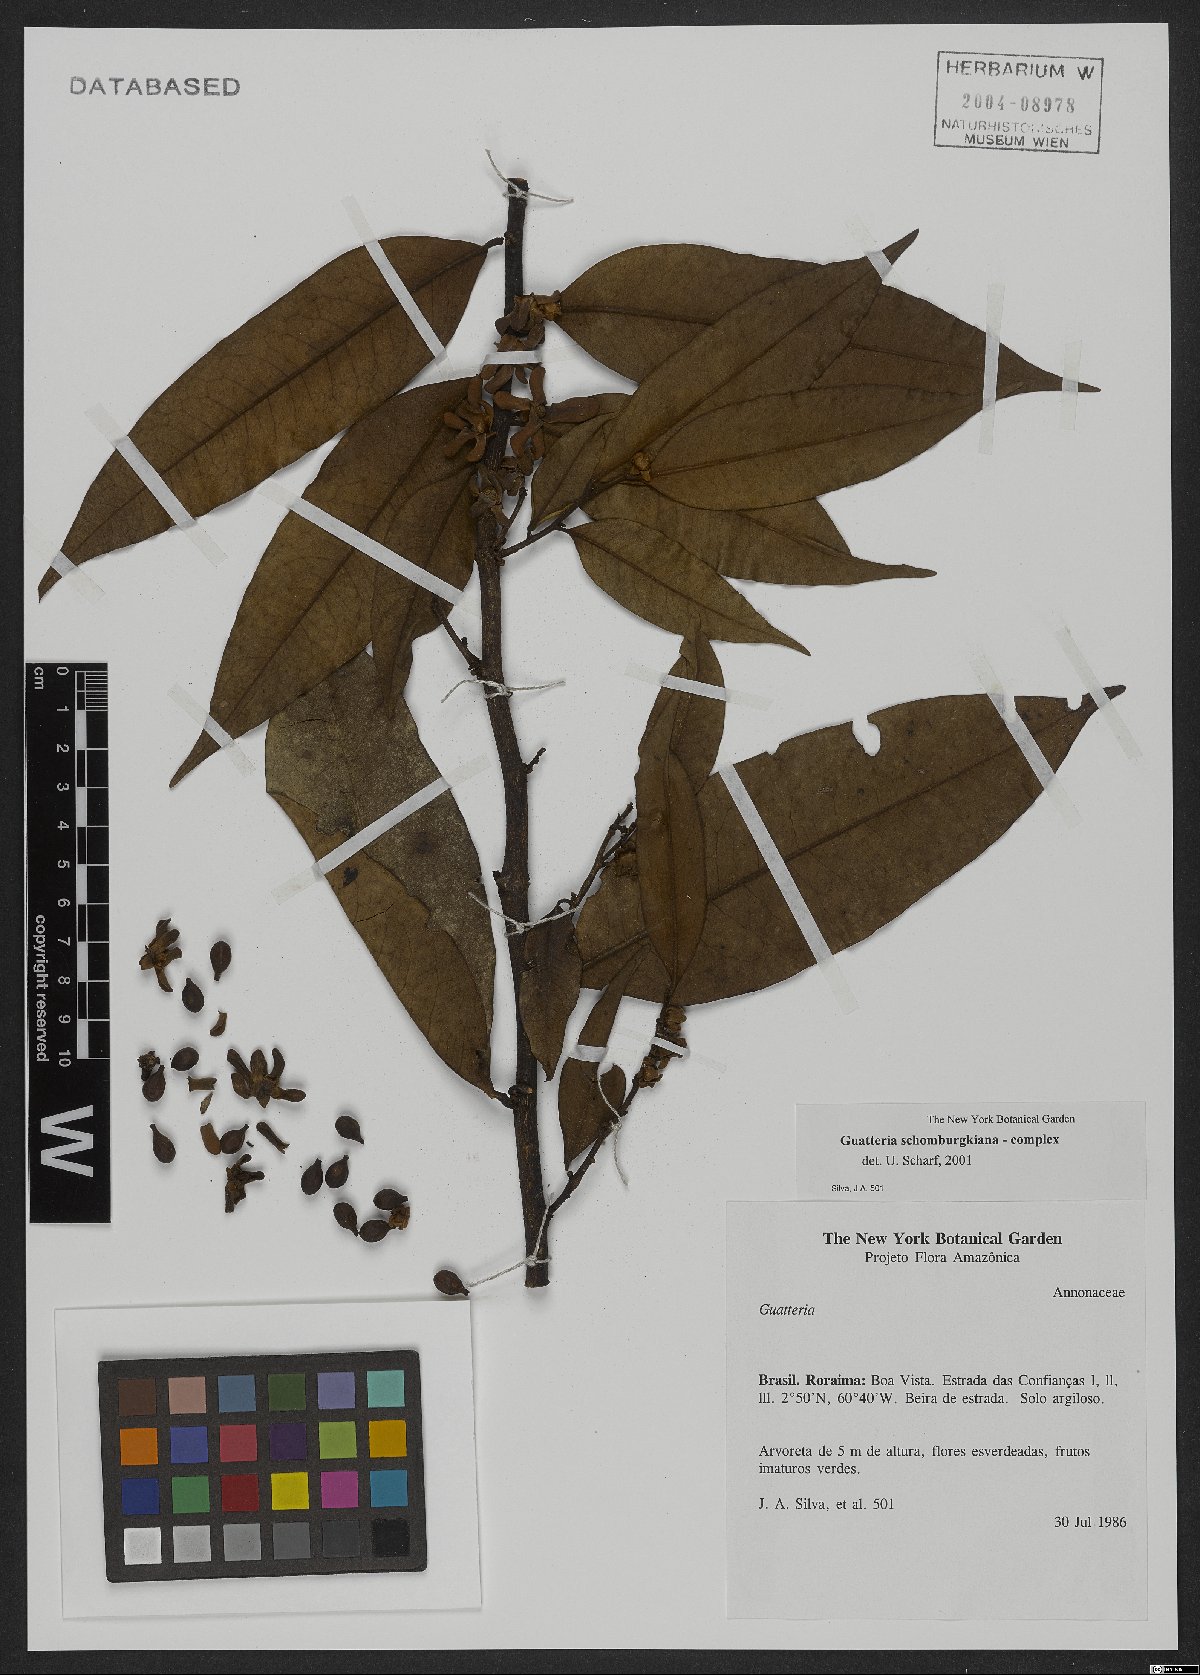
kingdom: Plantae
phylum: Tracheophyta
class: Magnoliopsida
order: Magnoliales
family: Annonaceae
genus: Guatteria
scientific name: Guatteria schomburgkiana
